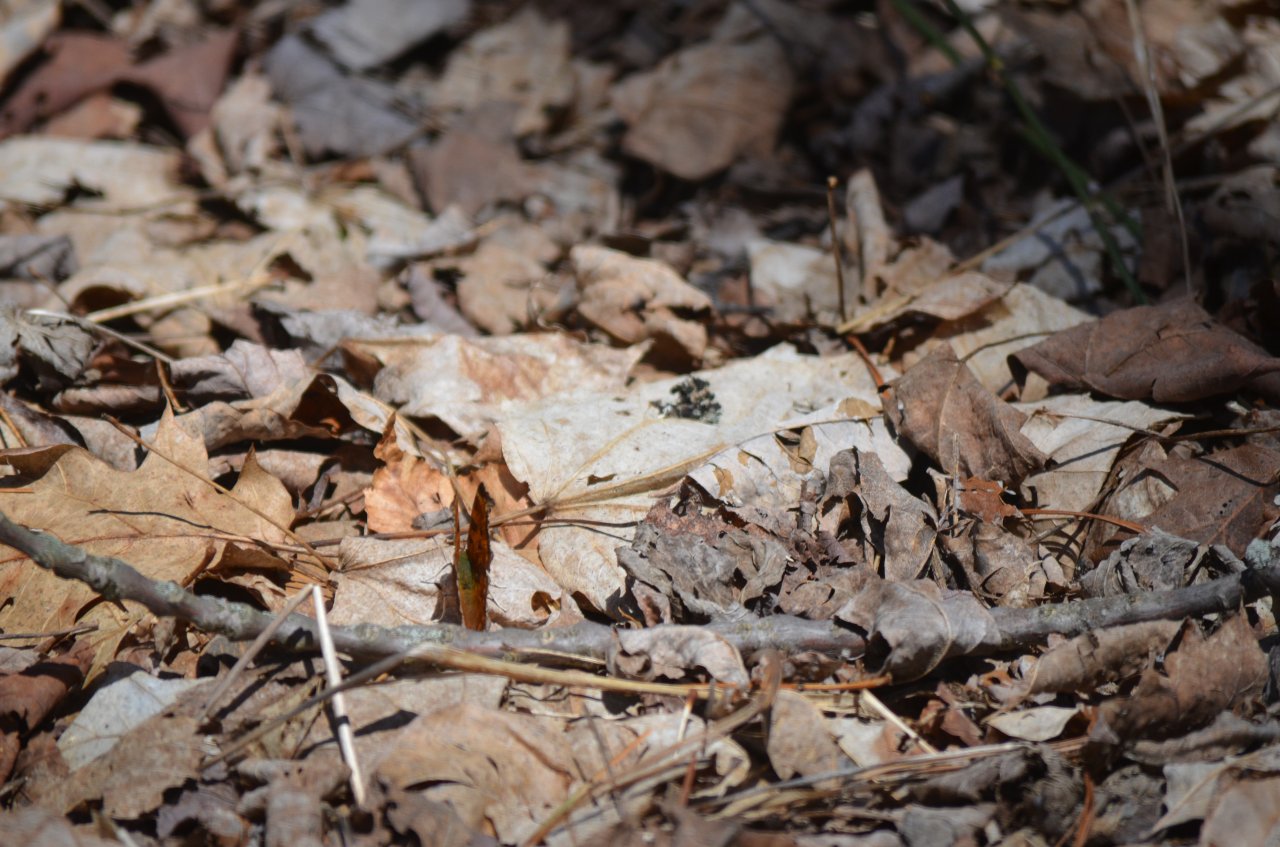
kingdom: Animalia
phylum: Arthropoda
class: Insecta
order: Lepidoptera
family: Nymphalidae
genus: Polygonia
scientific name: Polygonia comma
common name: Eastern Comma
